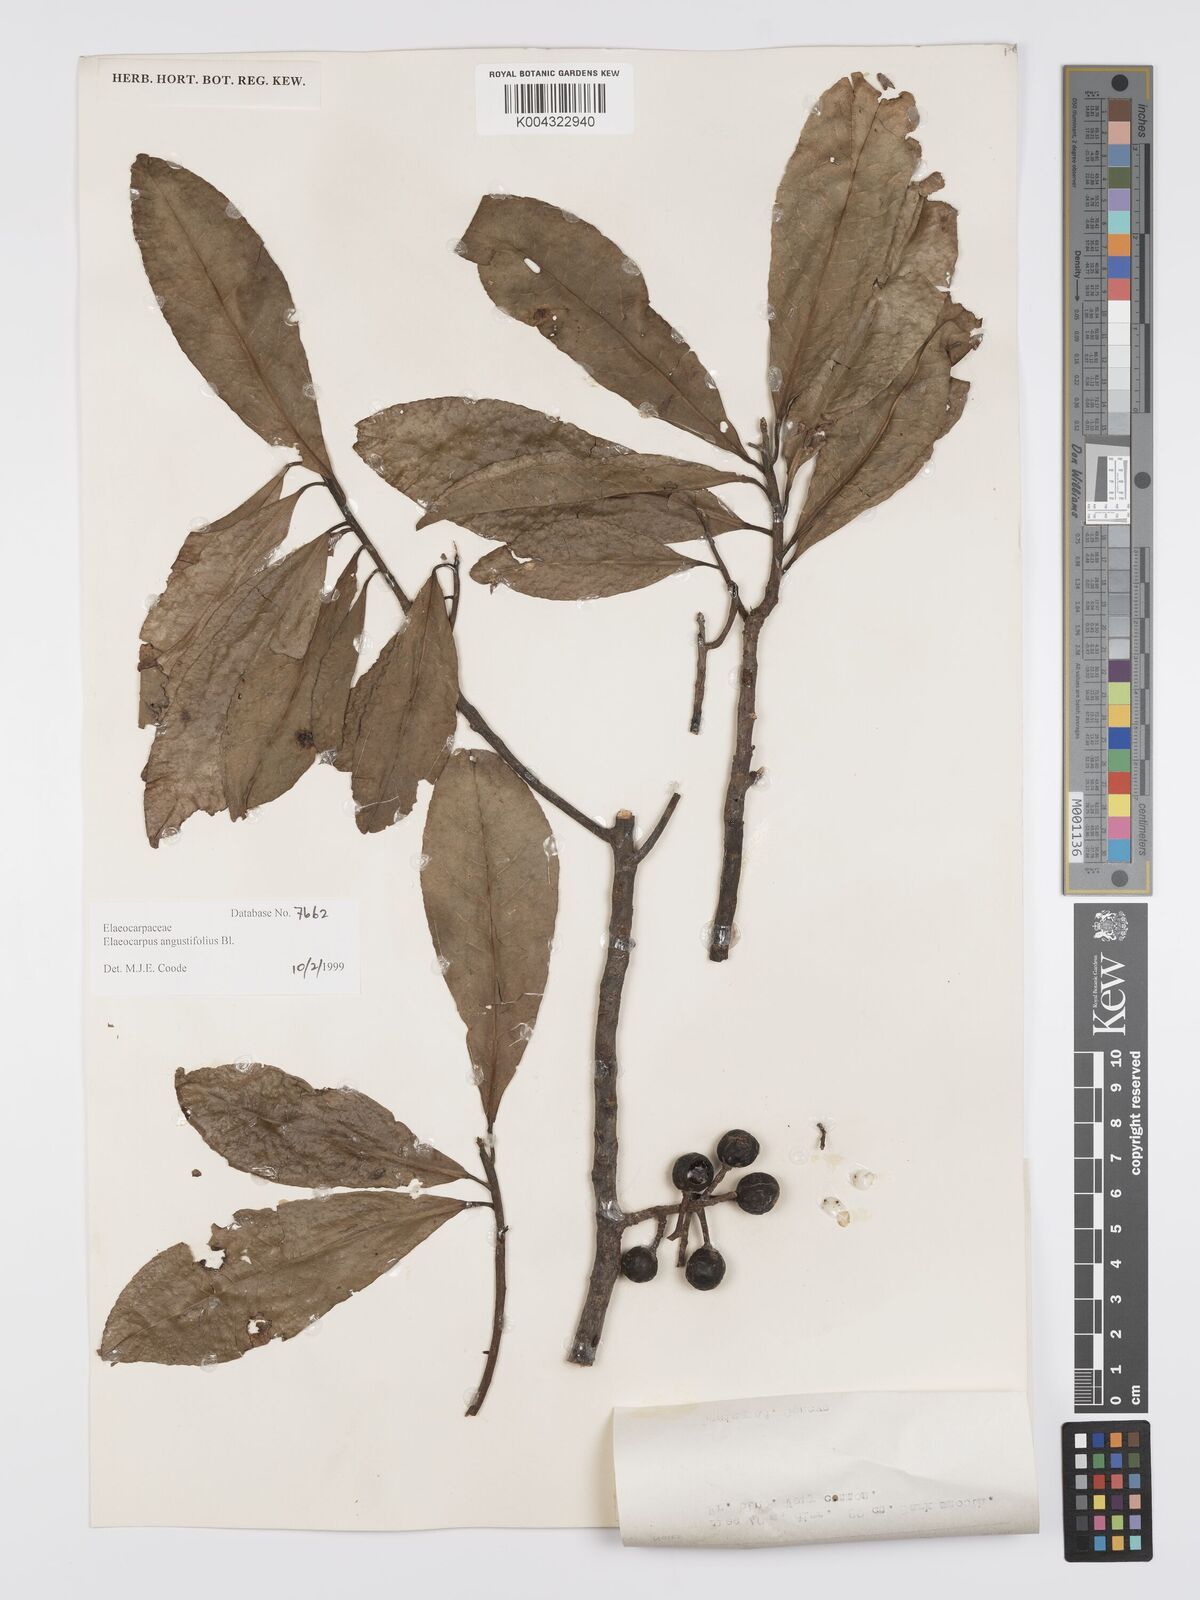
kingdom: Plantae
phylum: Tracheophyta
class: Magnoliopsida
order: Oxalidales
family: Elaeocarpaceae
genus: Elaeocarpus
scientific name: Elaeocarpus
